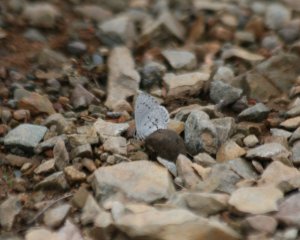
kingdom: Animalia
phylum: Arthropoda
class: Insecta
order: Lepidoptera
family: Lycaenidae
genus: Celastrina
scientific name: Celastrina
